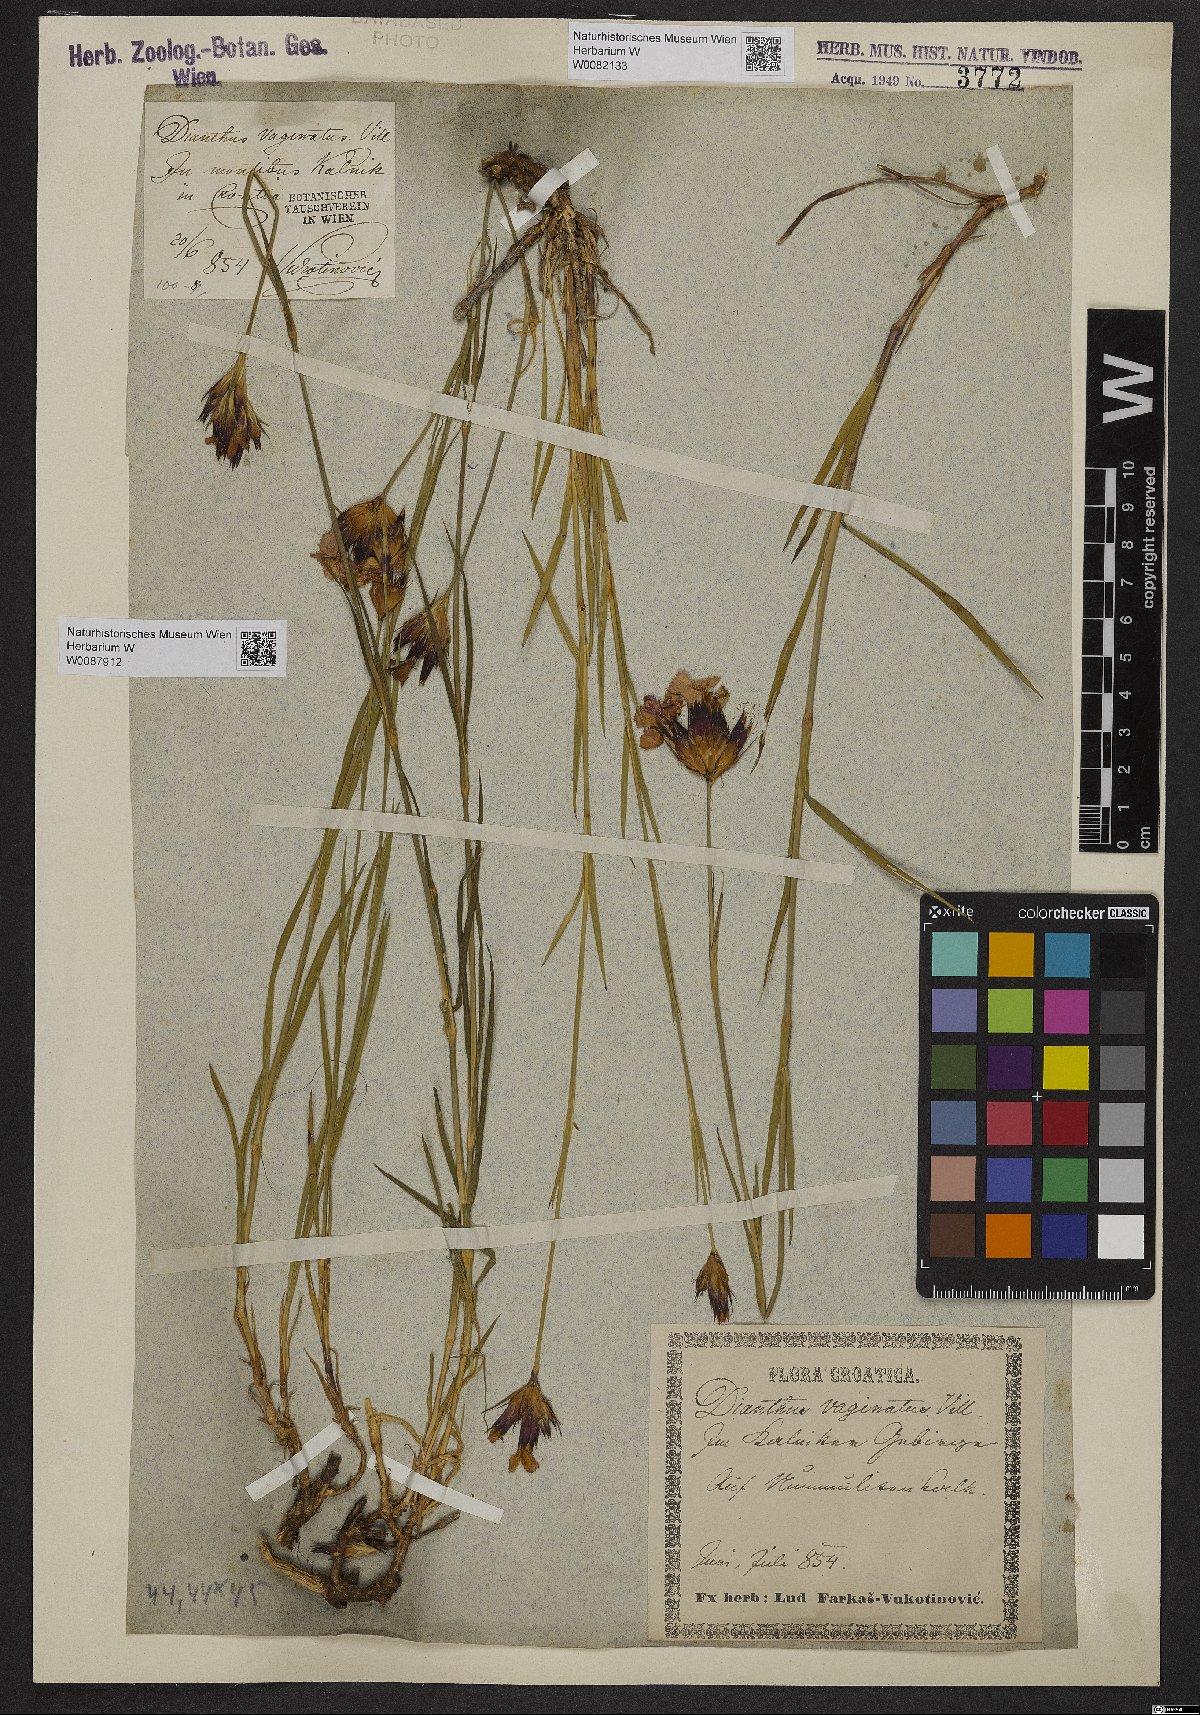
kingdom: Plantae
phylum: Tracheophyta
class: Magnoliopsida
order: Caryophyllales
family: Caryophyllaceae
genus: Dianthus
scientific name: Dianthus carthusianorum
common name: Carthusian pink
